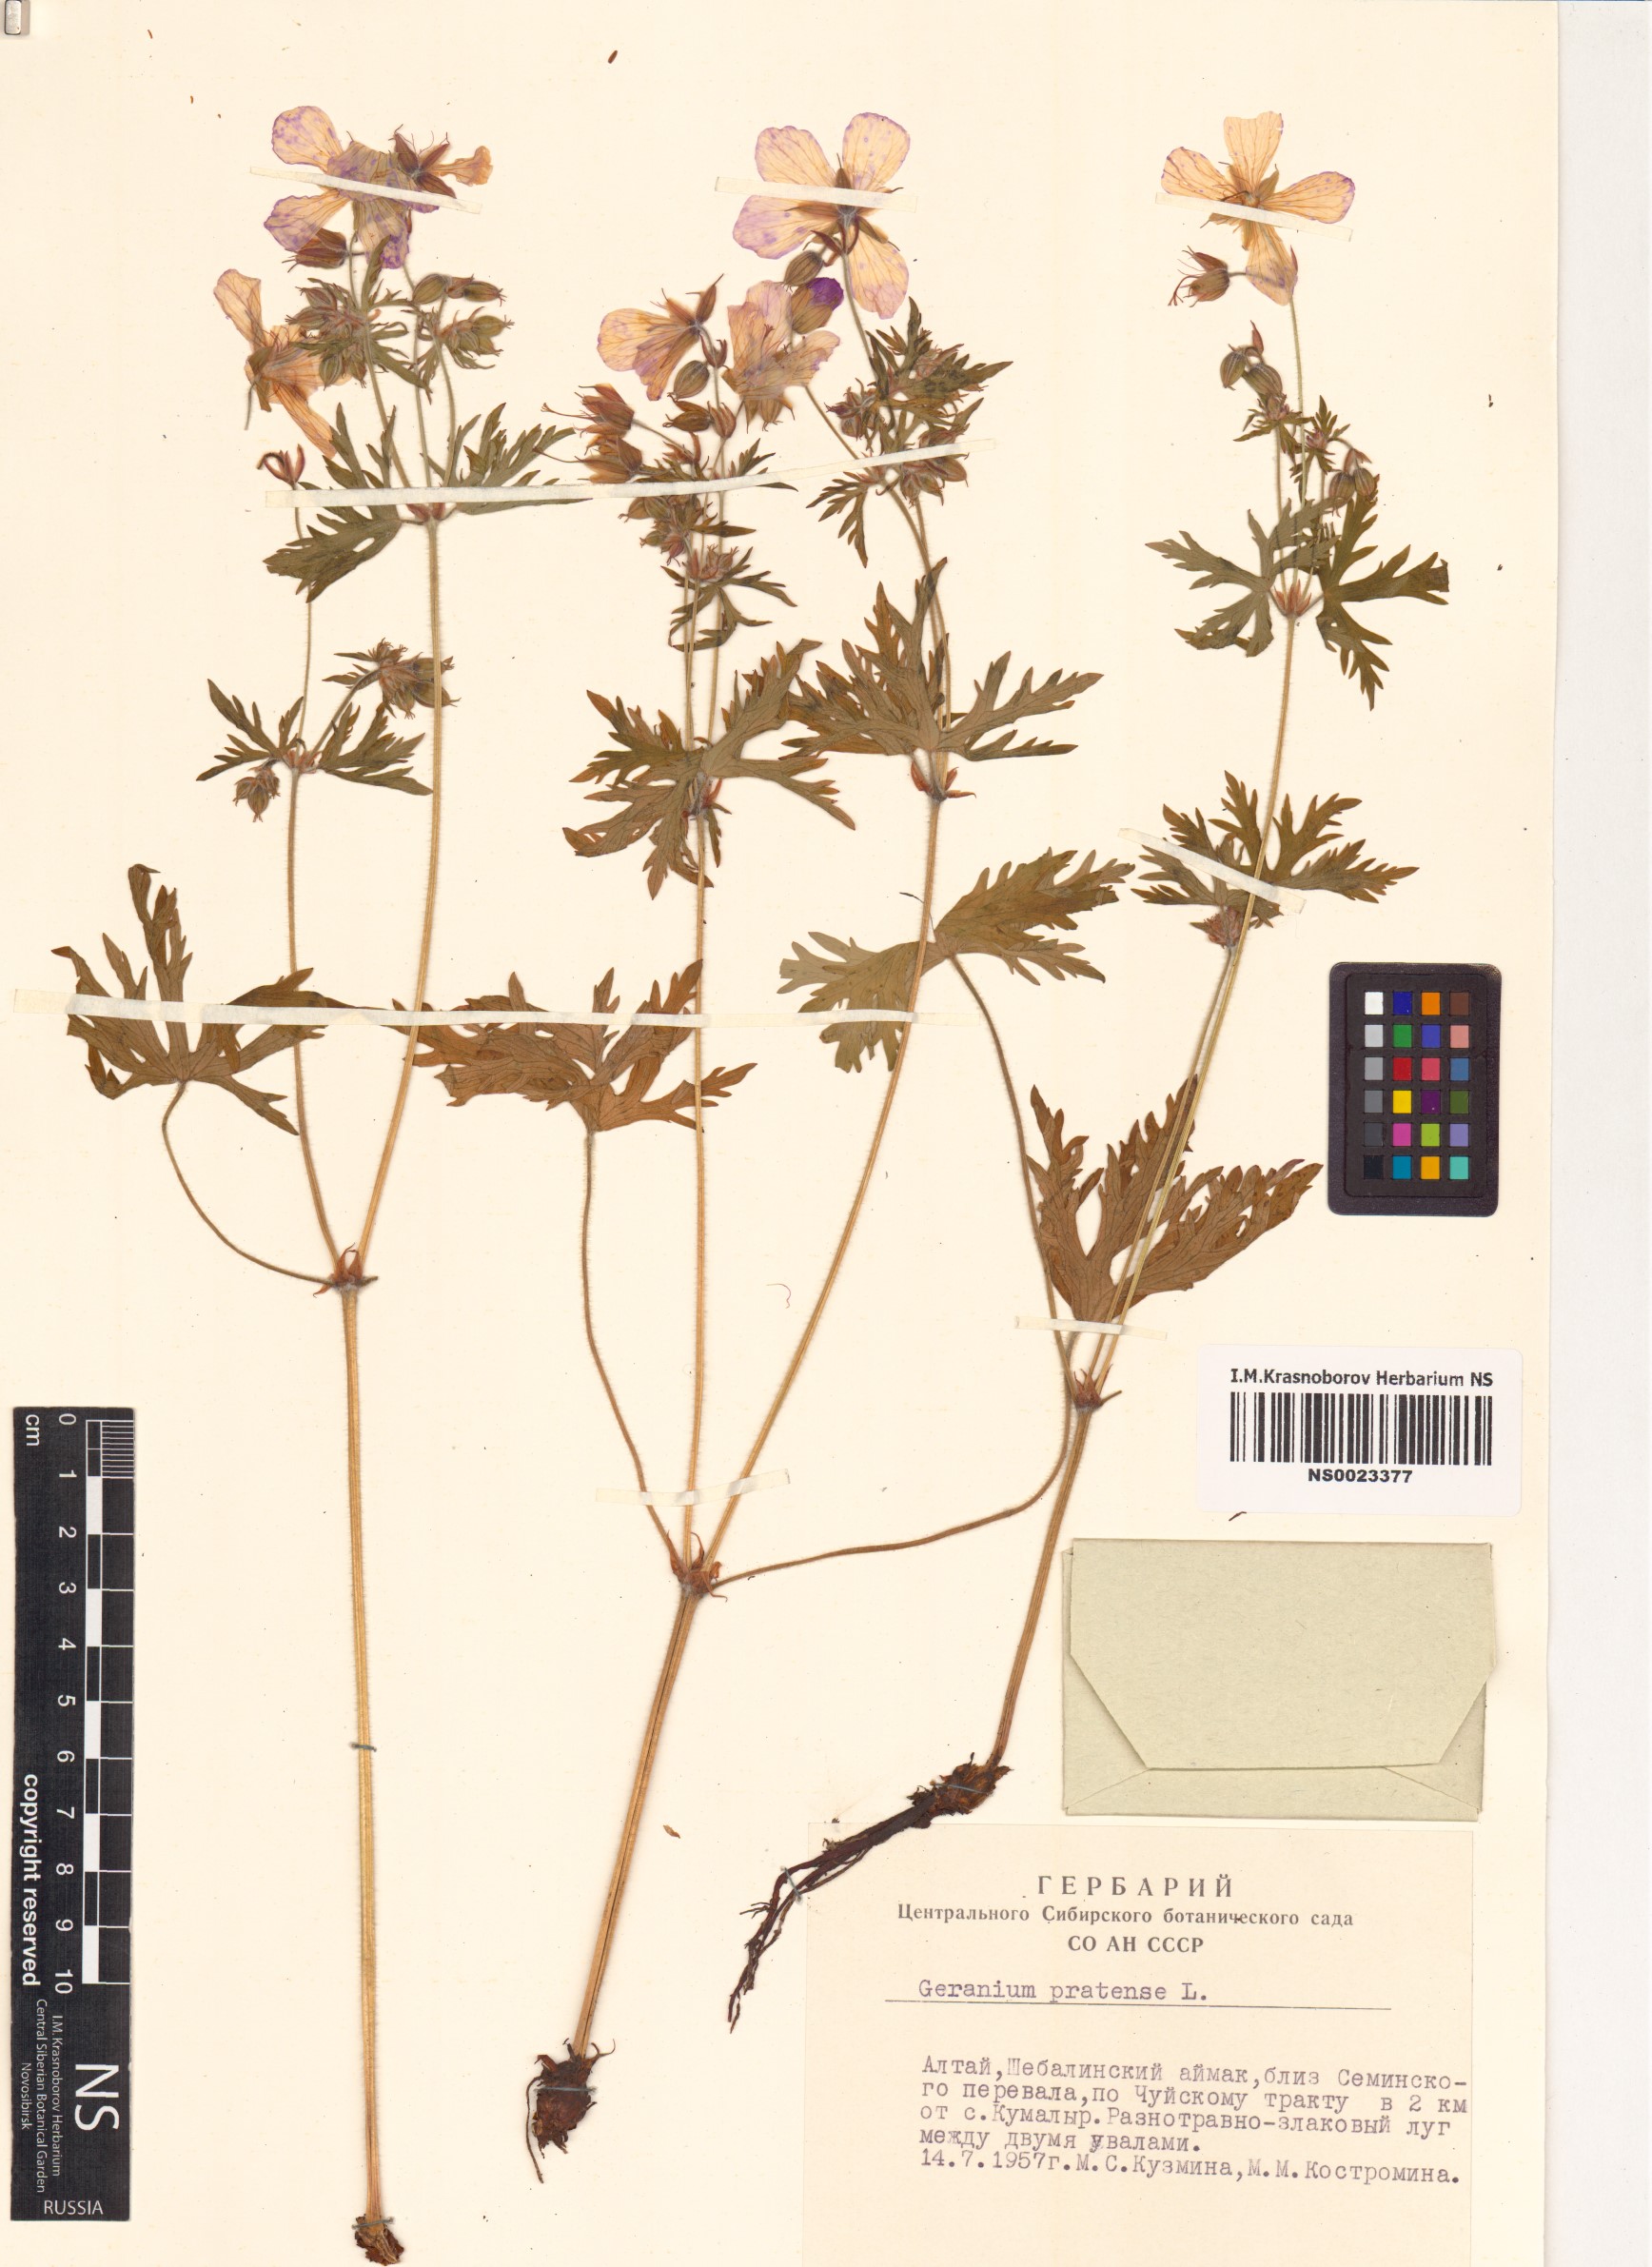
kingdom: Plantae
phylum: Tracheophyta
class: Magnoliopsida
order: Geraniales
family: Geraniaceae
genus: Geranium
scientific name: Geranium pratense
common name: Meadow crane's-bill
